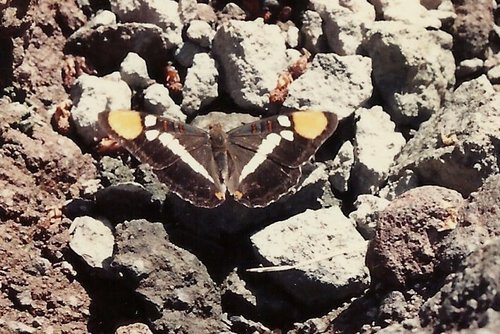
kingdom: Animalia
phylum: Arthropoda
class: Insecta
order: Lepidoptera
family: Nymphalidae
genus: Limenitis
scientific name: Limenitis bredowii
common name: California Sister
